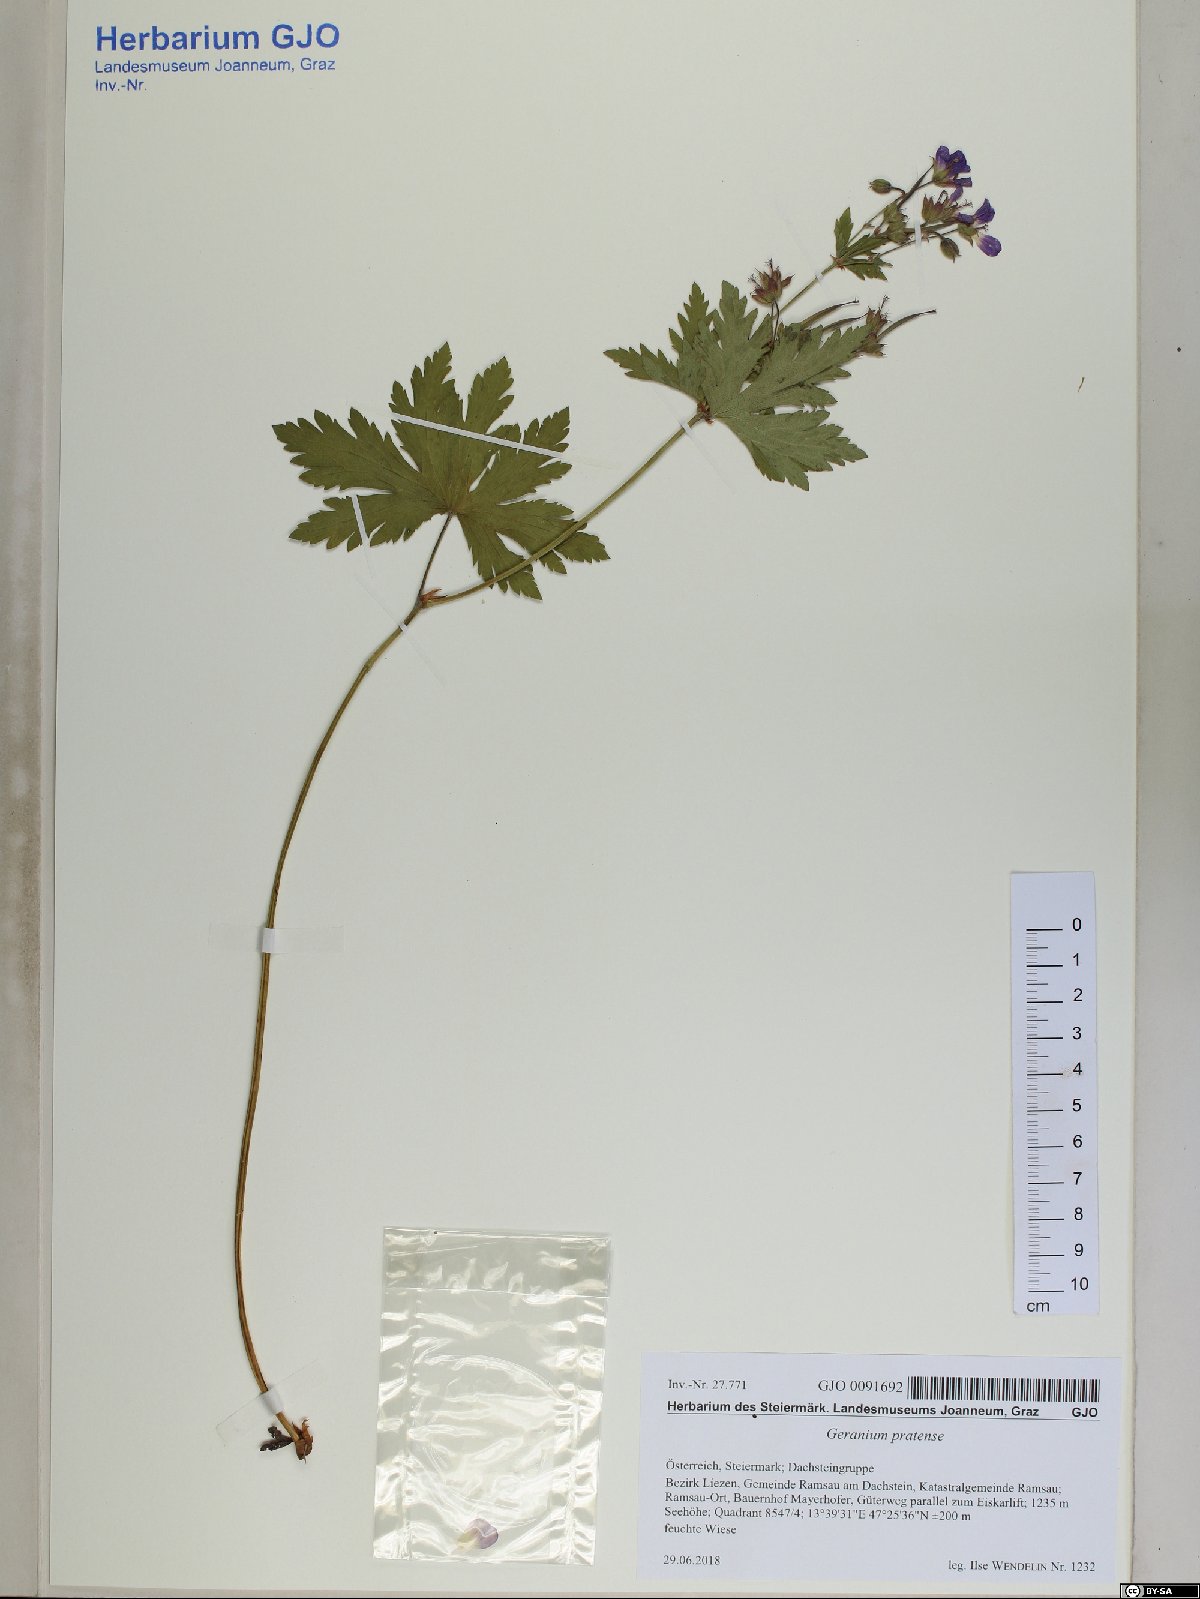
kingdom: Plantae
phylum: Tracheophyta
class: Magnoliopsida
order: Geraniales
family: Geraniaceae
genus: Geranium
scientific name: Geranium pratense
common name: Meadow crane's-bill
